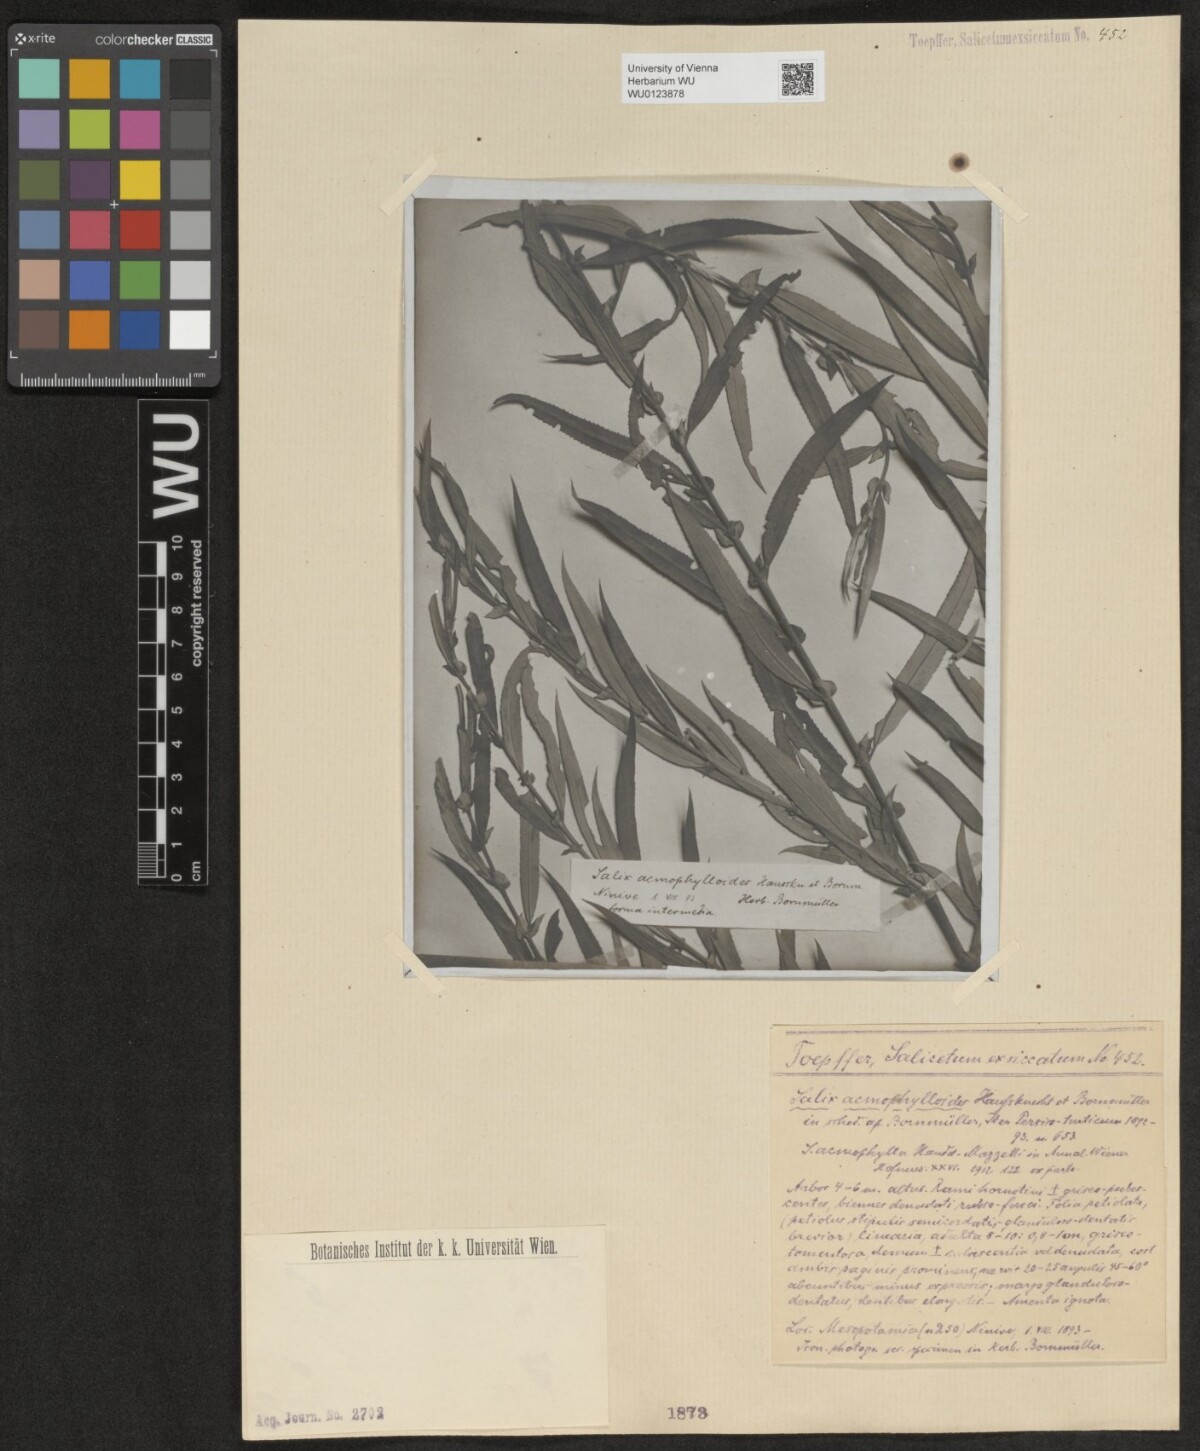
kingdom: Plantae
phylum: Tracheophyta
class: Magnoliopsida
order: Malpighiales
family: Salicaceae
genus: Salix
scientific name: Salix
